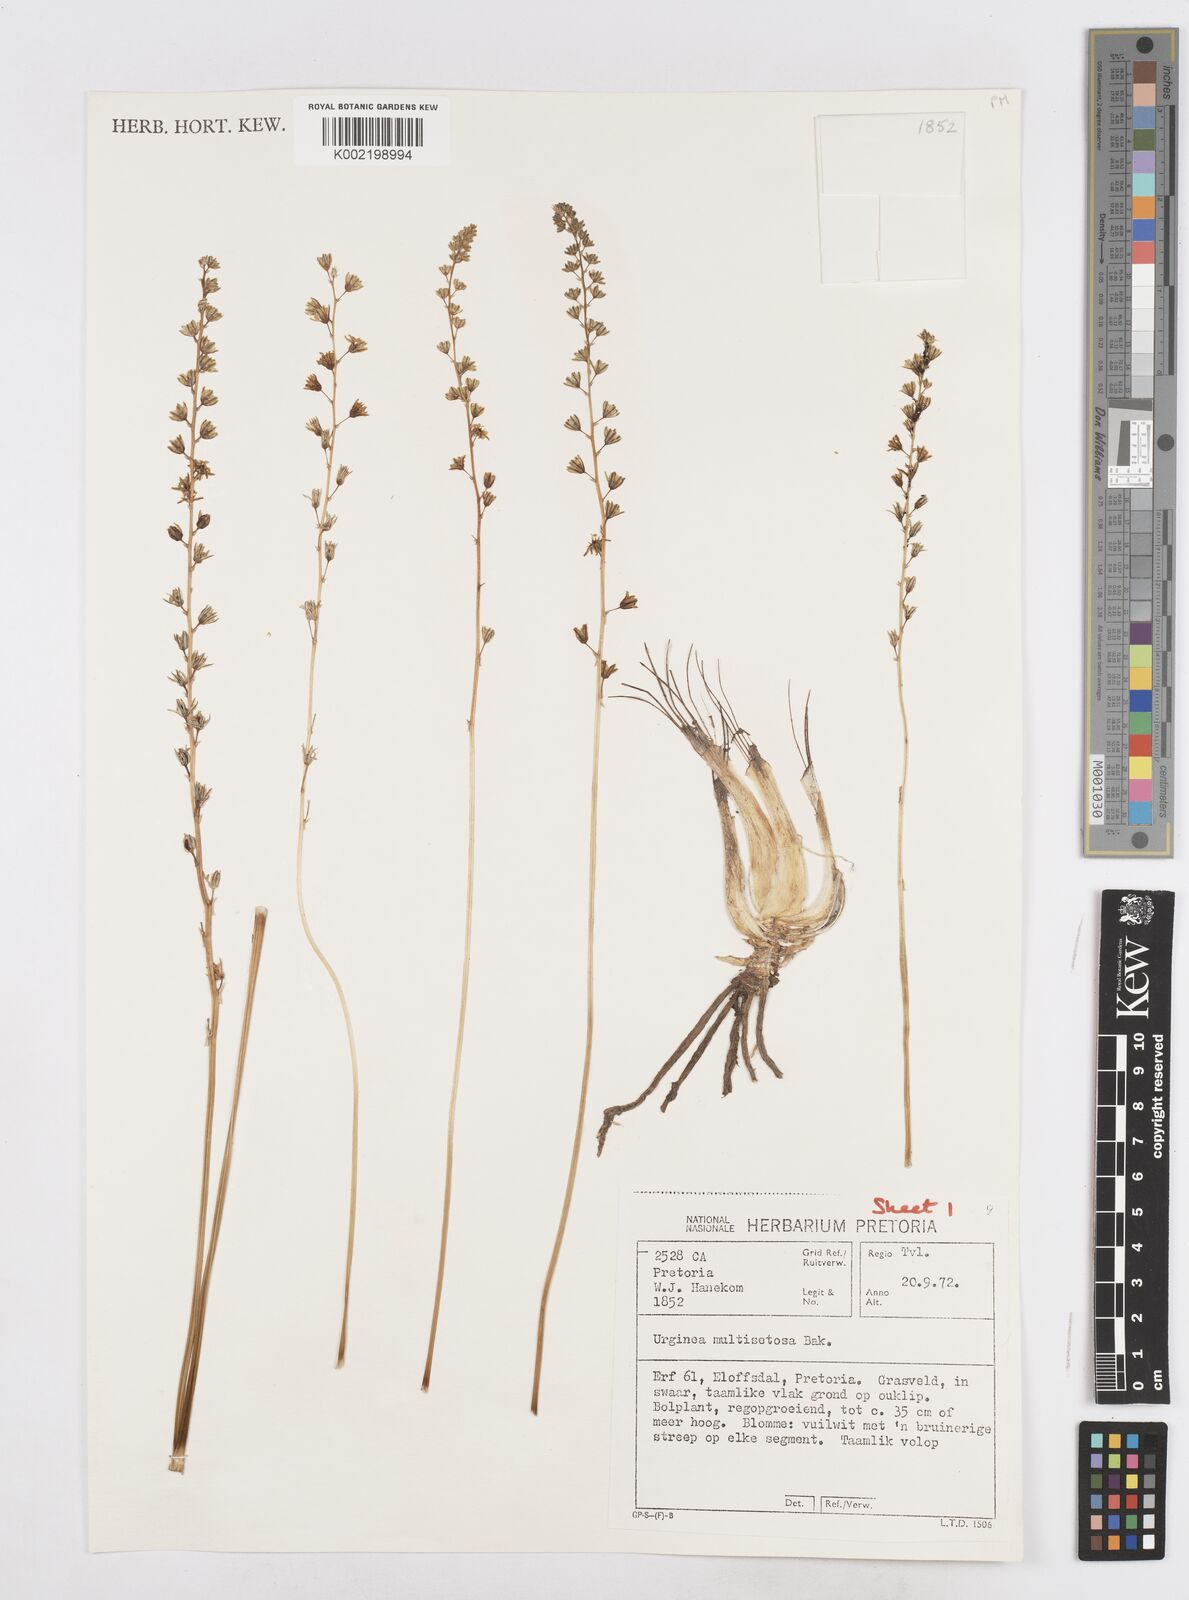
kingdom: Plantae
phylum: Tracheophyta
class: Liliopsida
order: Asparagales
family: Asparagaceae
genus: Drimia
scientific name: Drimia multisetosa
